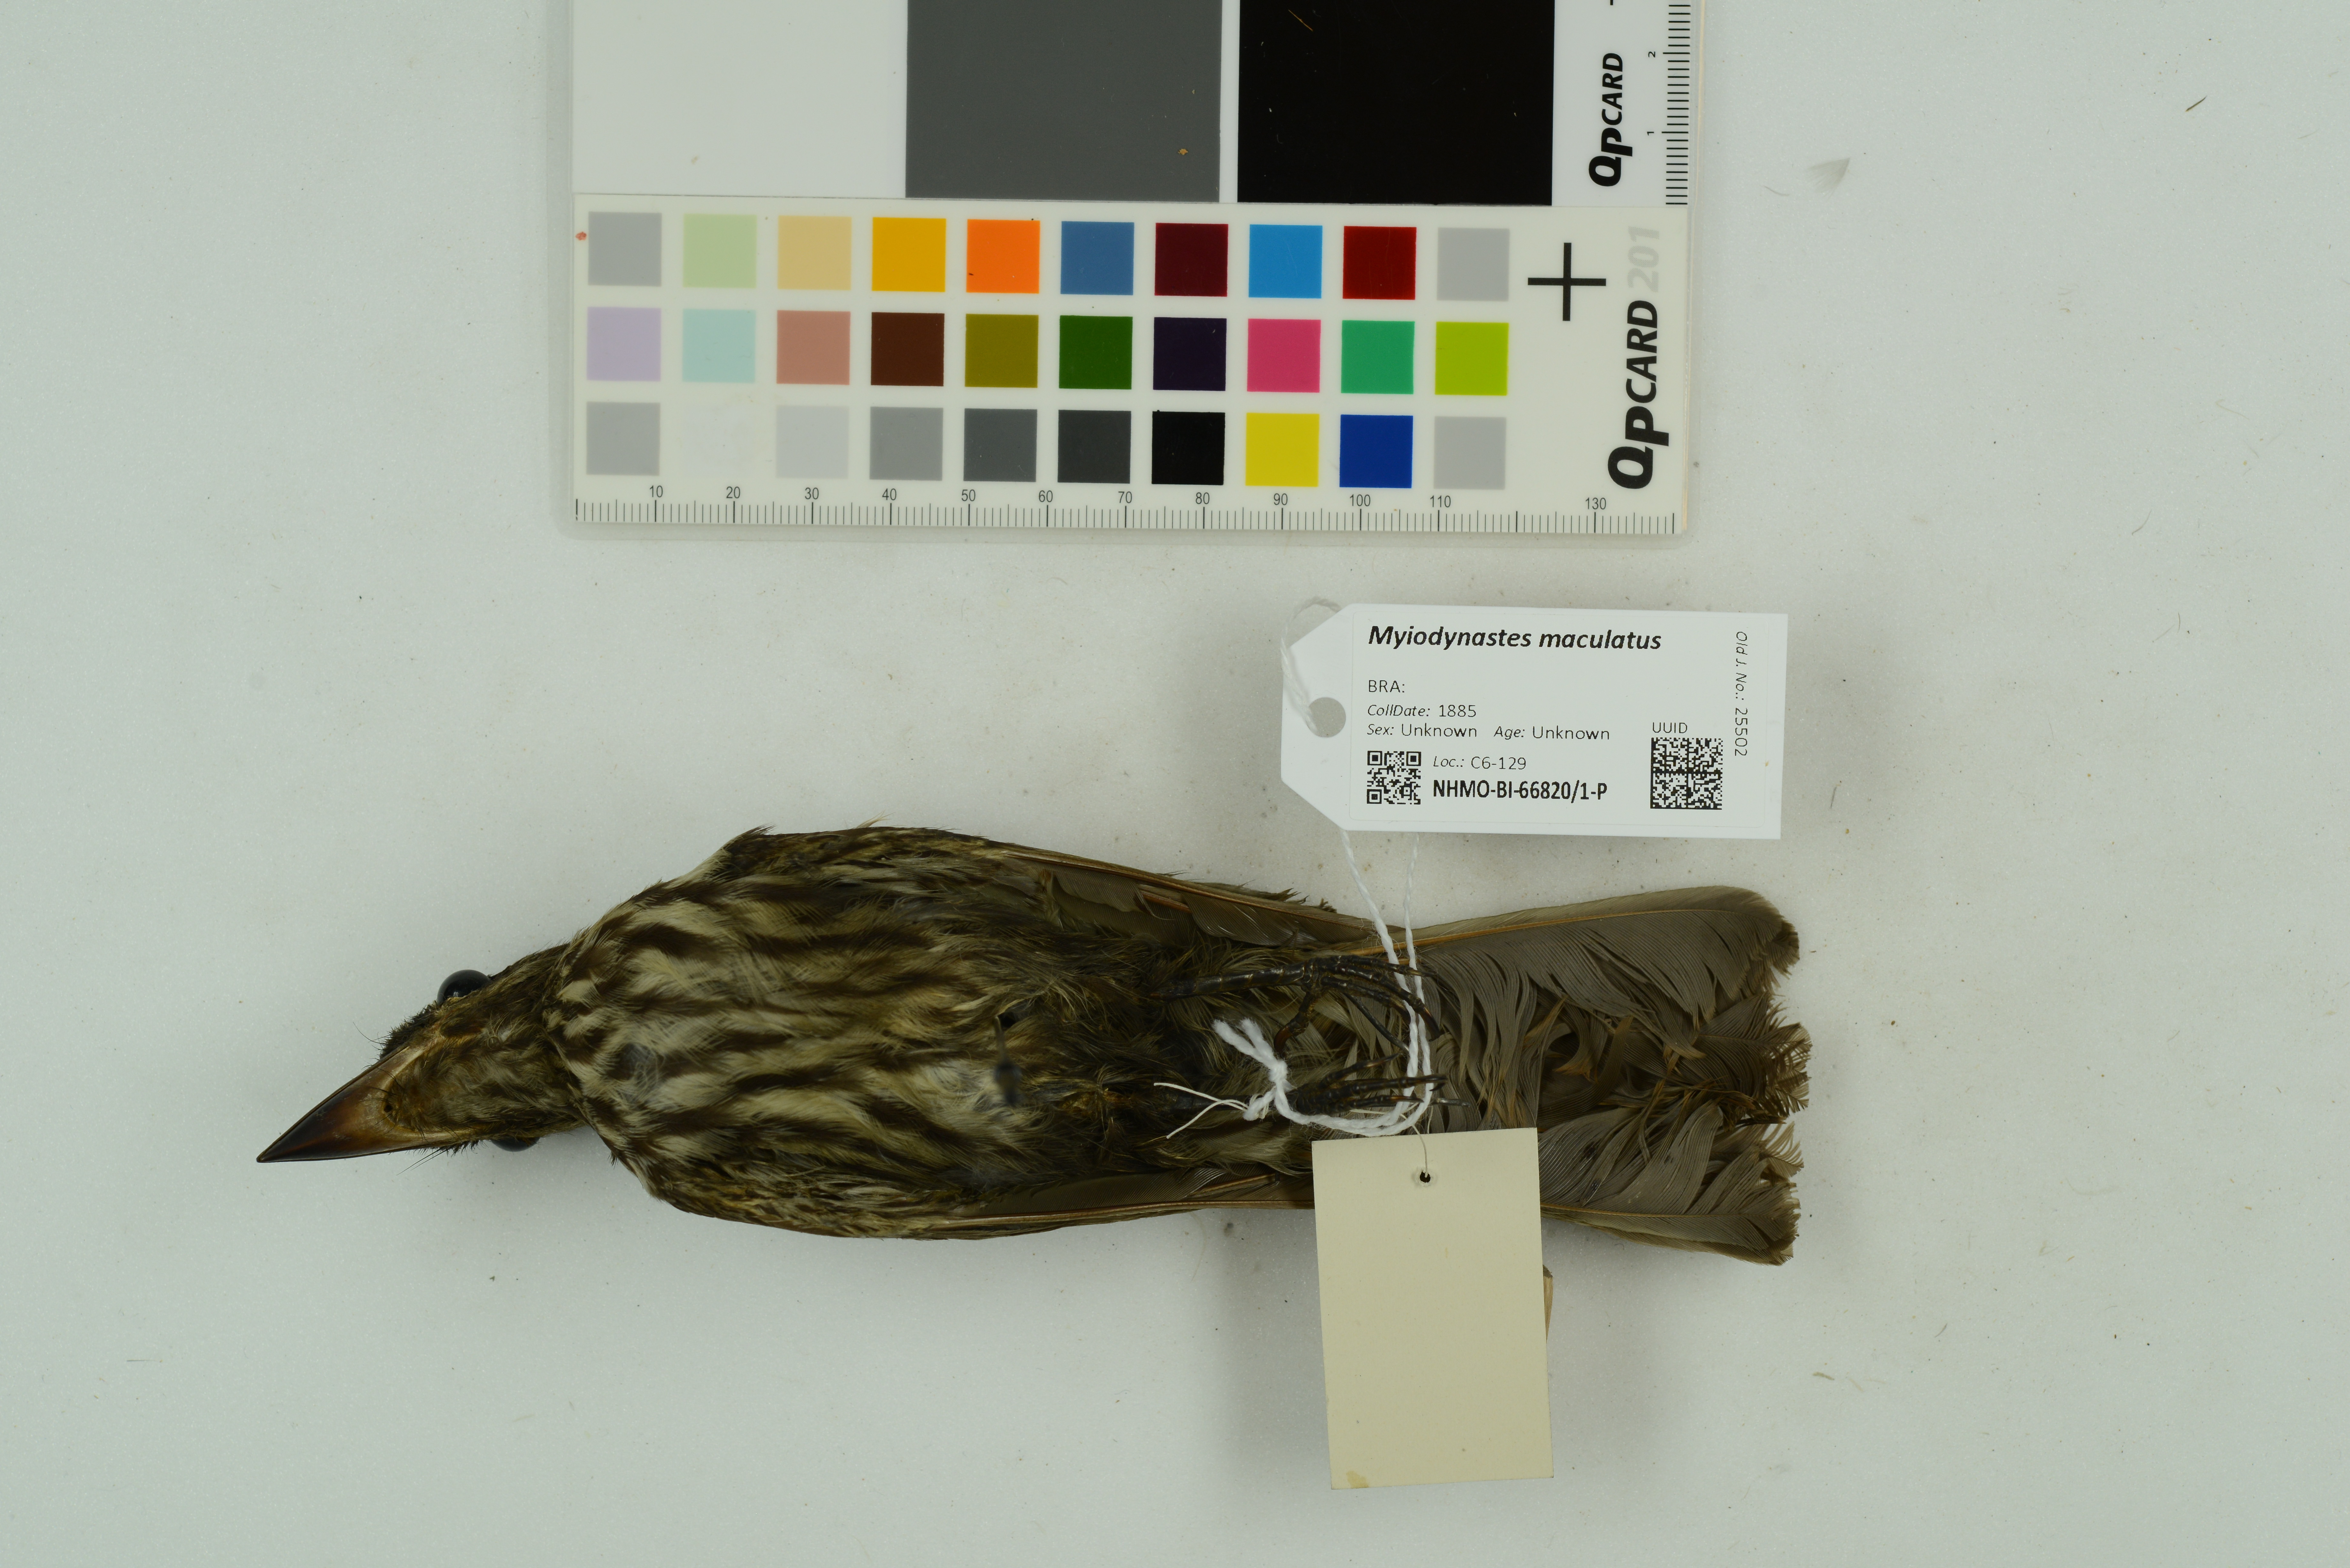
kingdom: Animalia
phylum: Chordata
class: Aves
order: Passeriformes
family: Tyrannidae
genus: Myiodynastes
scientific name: Myiodynastes maculatus
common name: Streaked flycatcher
